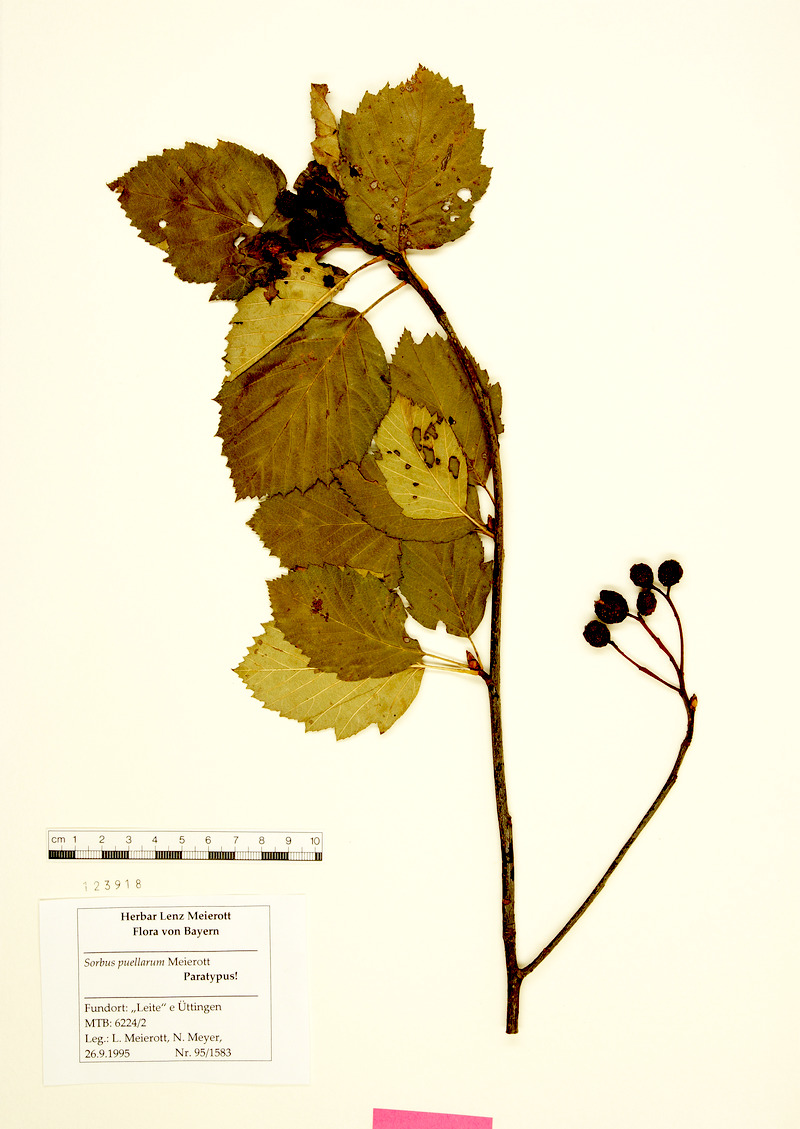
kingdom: Plantae
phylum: Tracheophyta
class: Magnoliopsida
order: Rosales
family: Rosaceae
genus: Karpatiosorbus
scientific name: Karpatiosorbus puellarum
